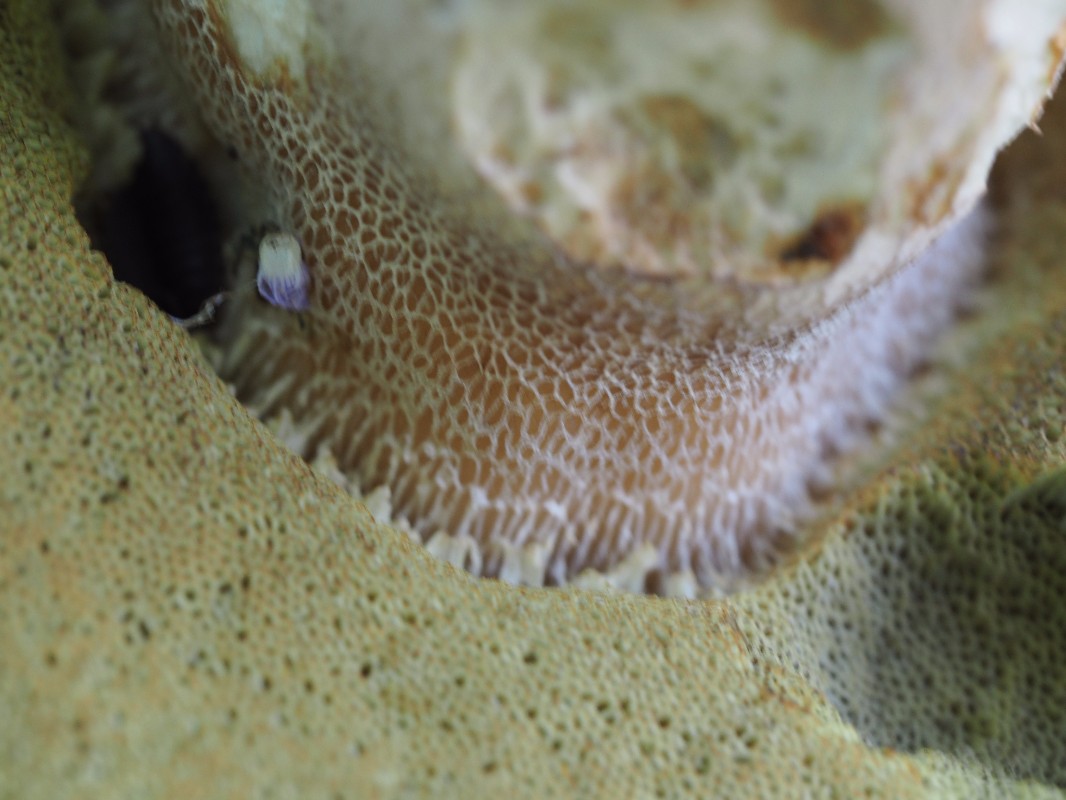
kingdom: Fungi
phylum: Basidiomycota
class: Agaricomycetes
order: Boletales
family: Boletaceae
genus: Boletus
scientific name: Boletus reticulatus
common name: sommer-rørhat
